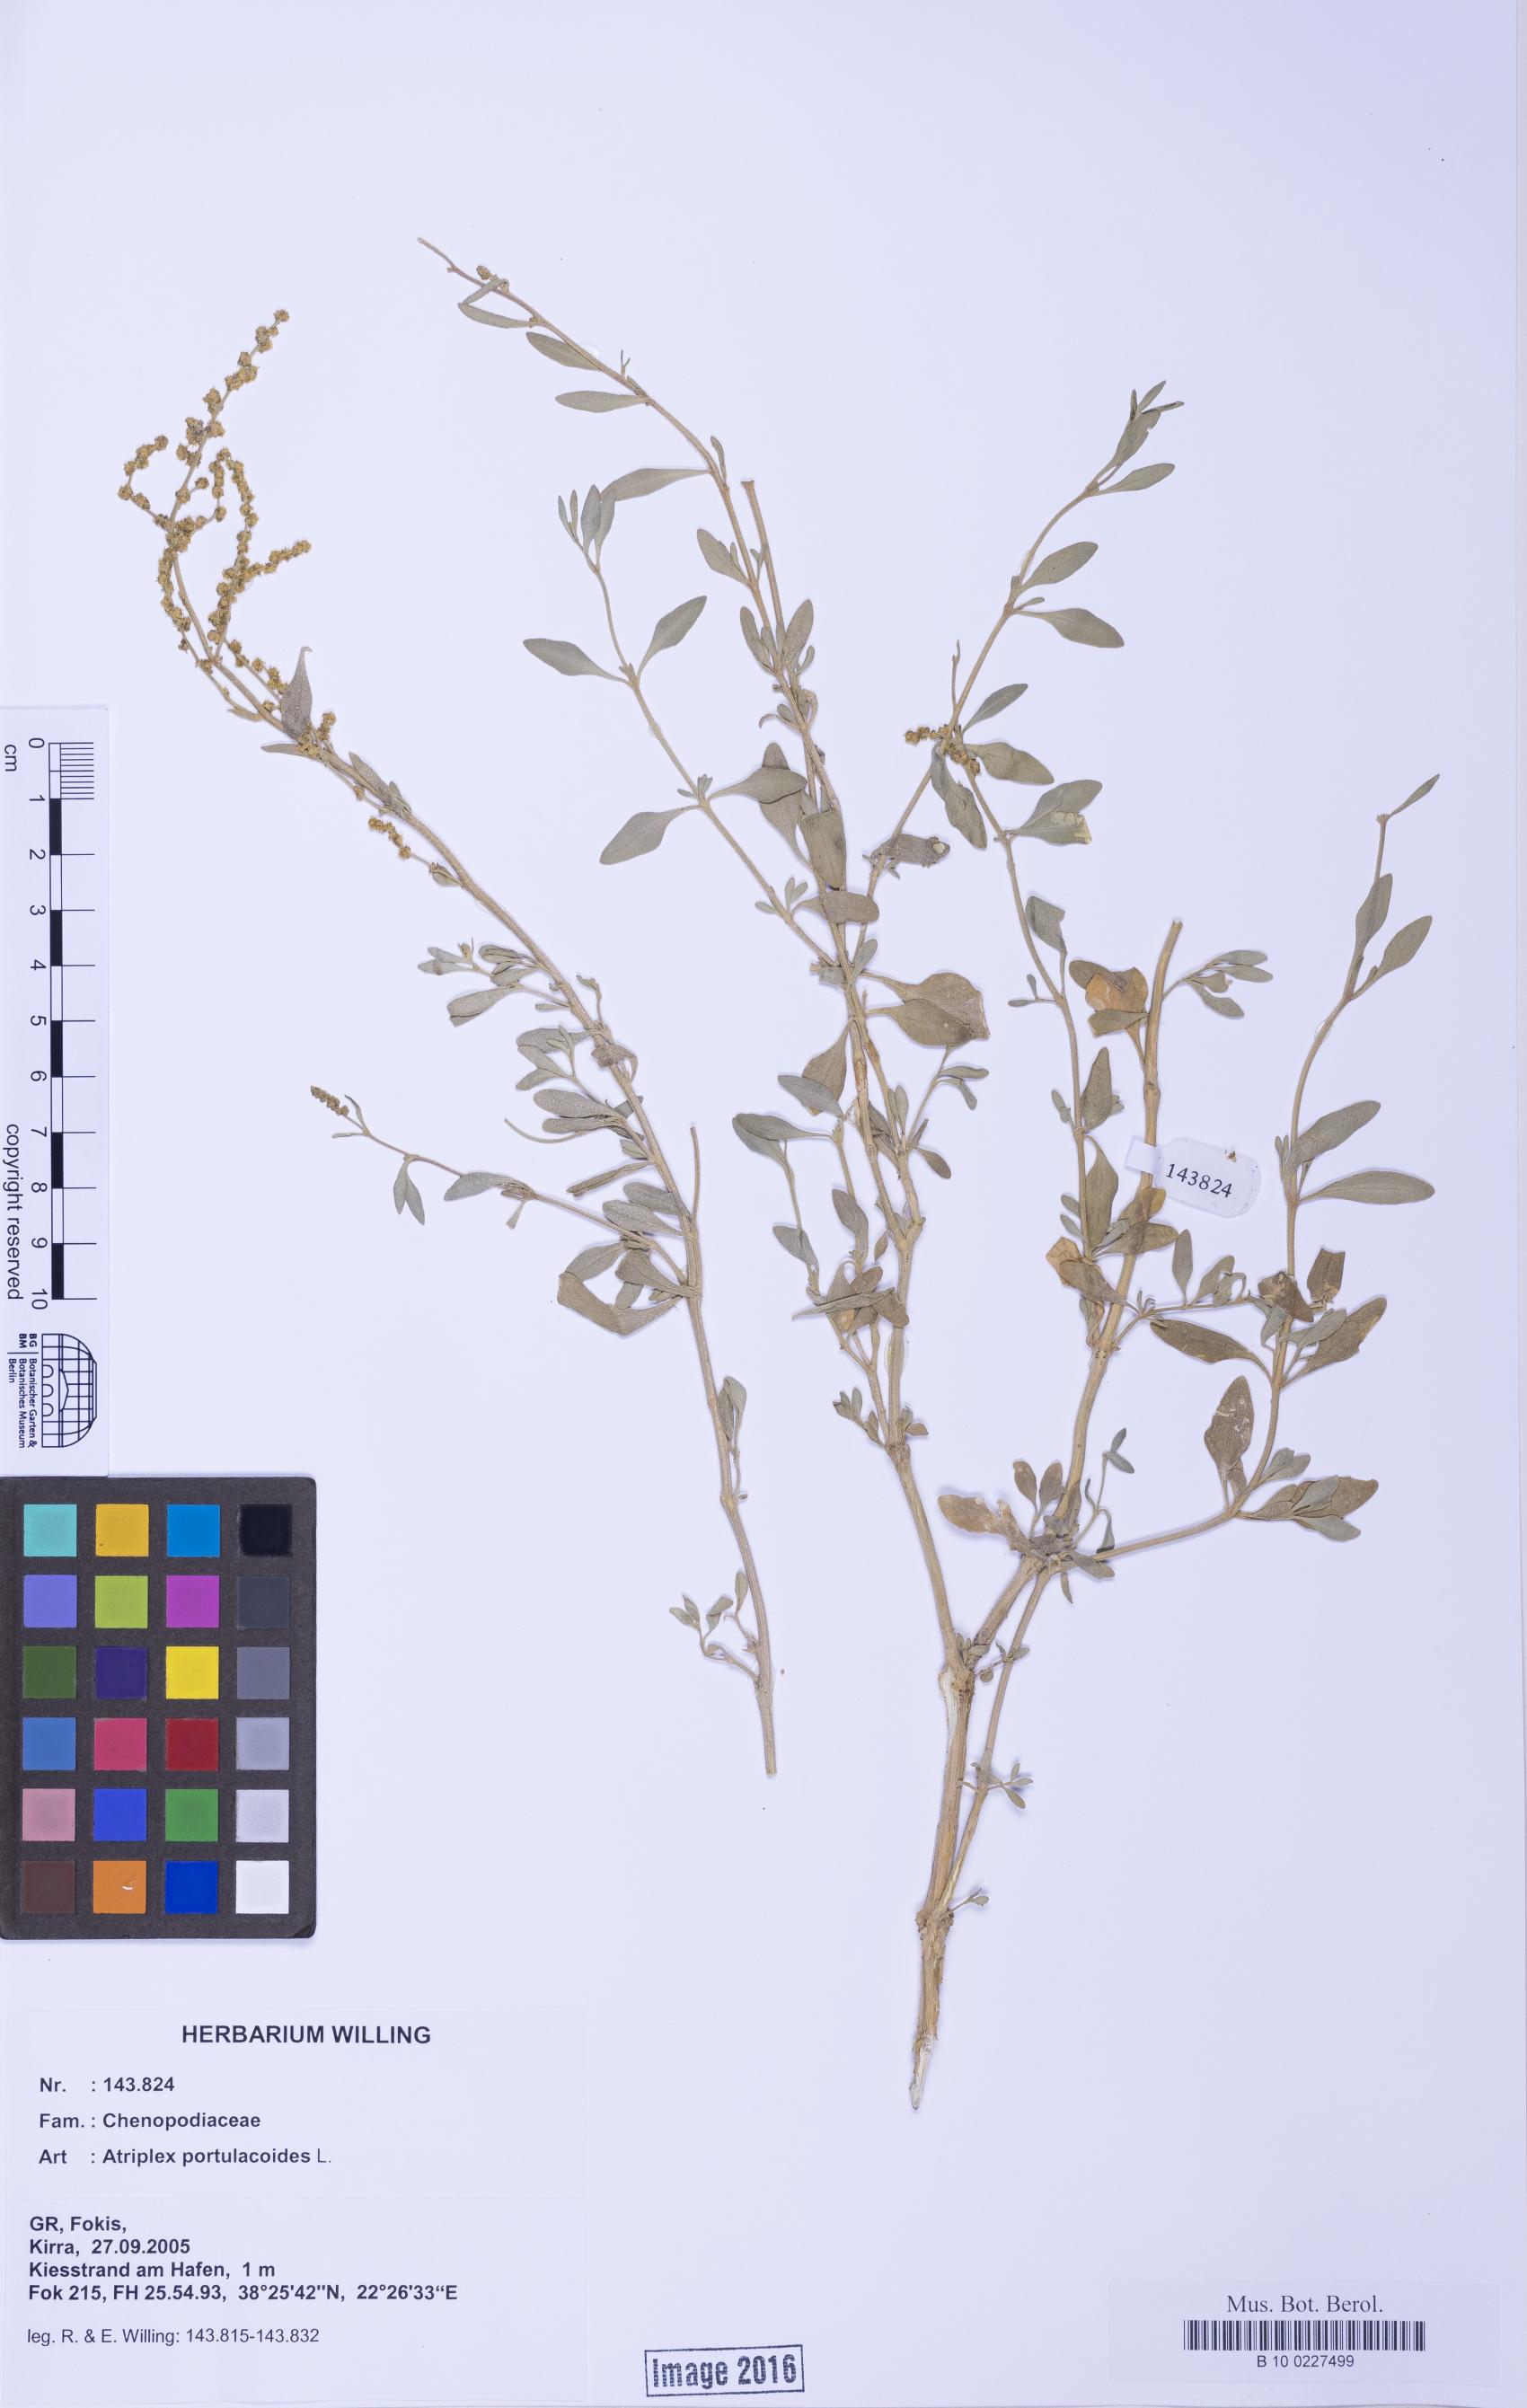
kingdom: Plantae
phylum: Tracheophyta
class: Magnoliopsida
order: Caryophyllales
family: Amaranthaceae
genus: Halimione
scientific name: Halimione portulacoides
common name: Sea-purslane
